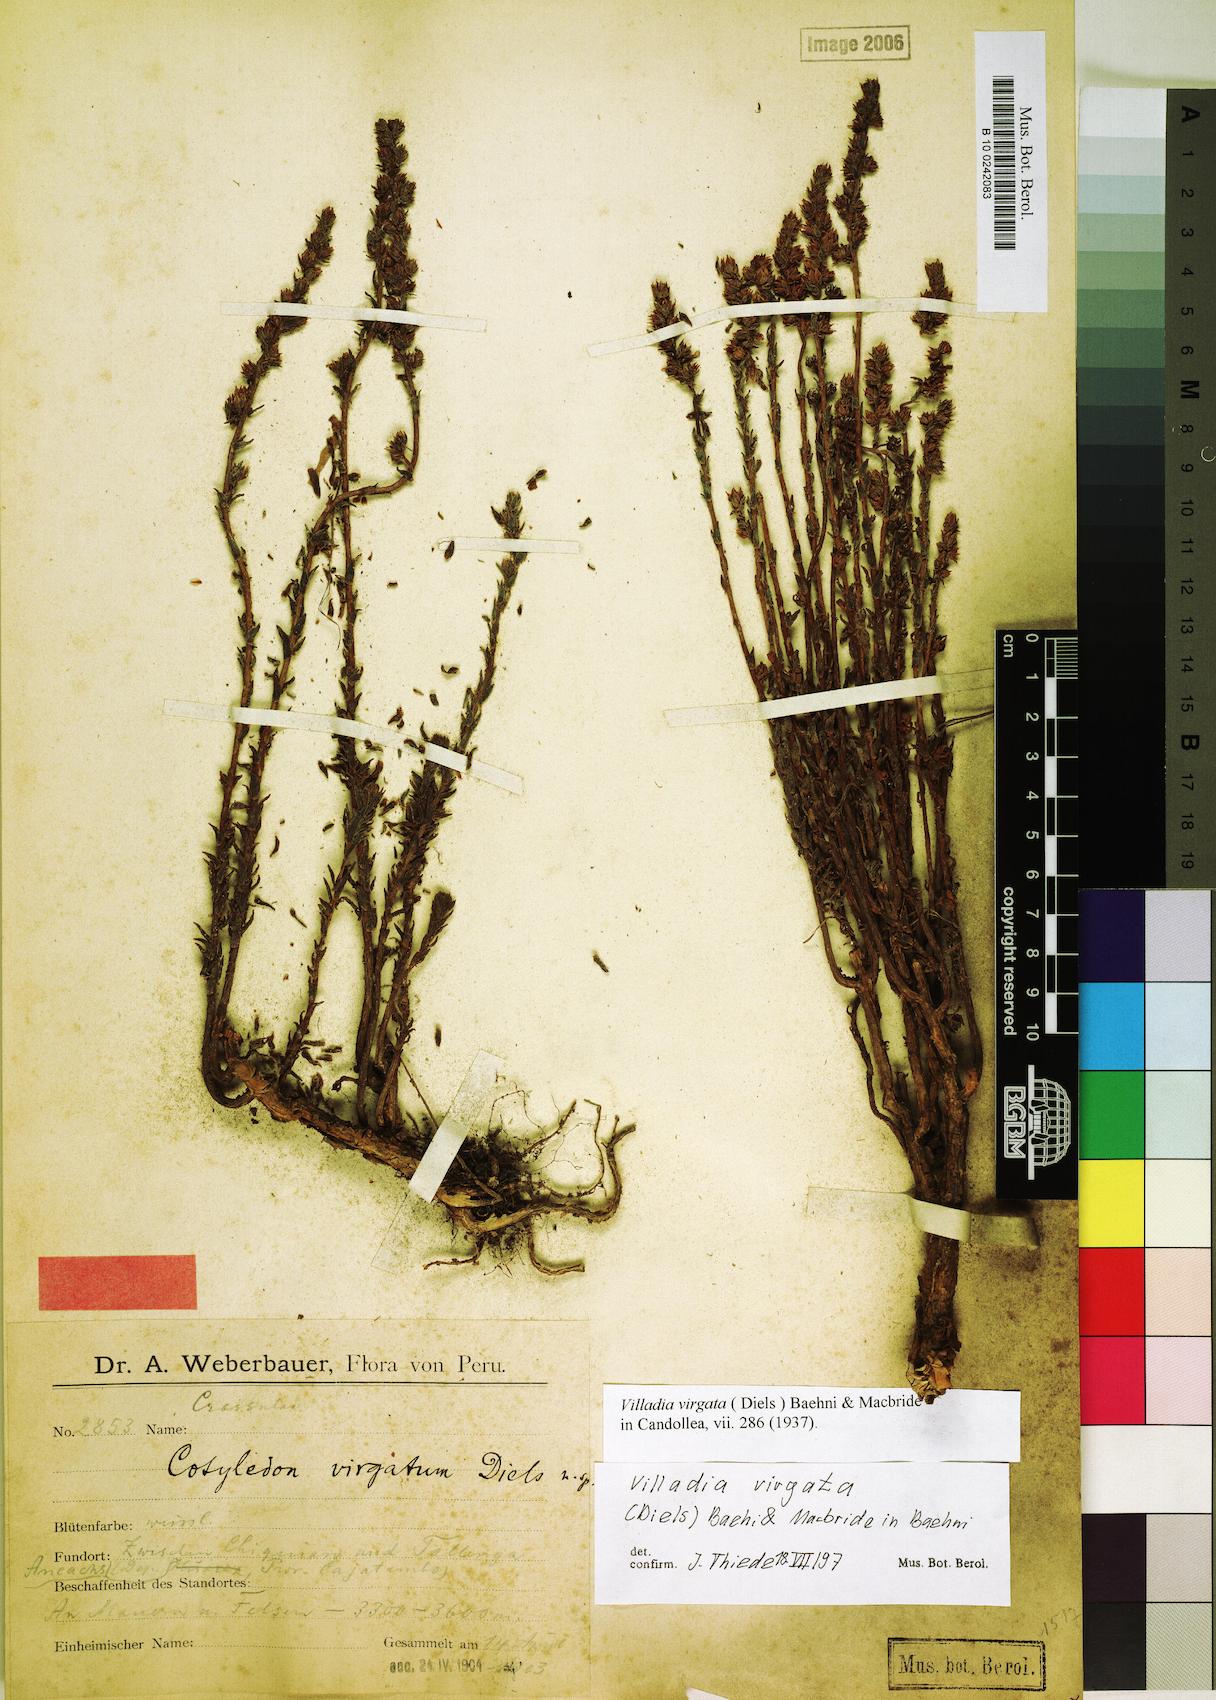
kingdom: Plantae
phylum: Tracheophyta
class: Magnoliopsida
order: Saxifragales
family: Crassulaceae
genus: Villadia
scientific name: Villadia virgata
